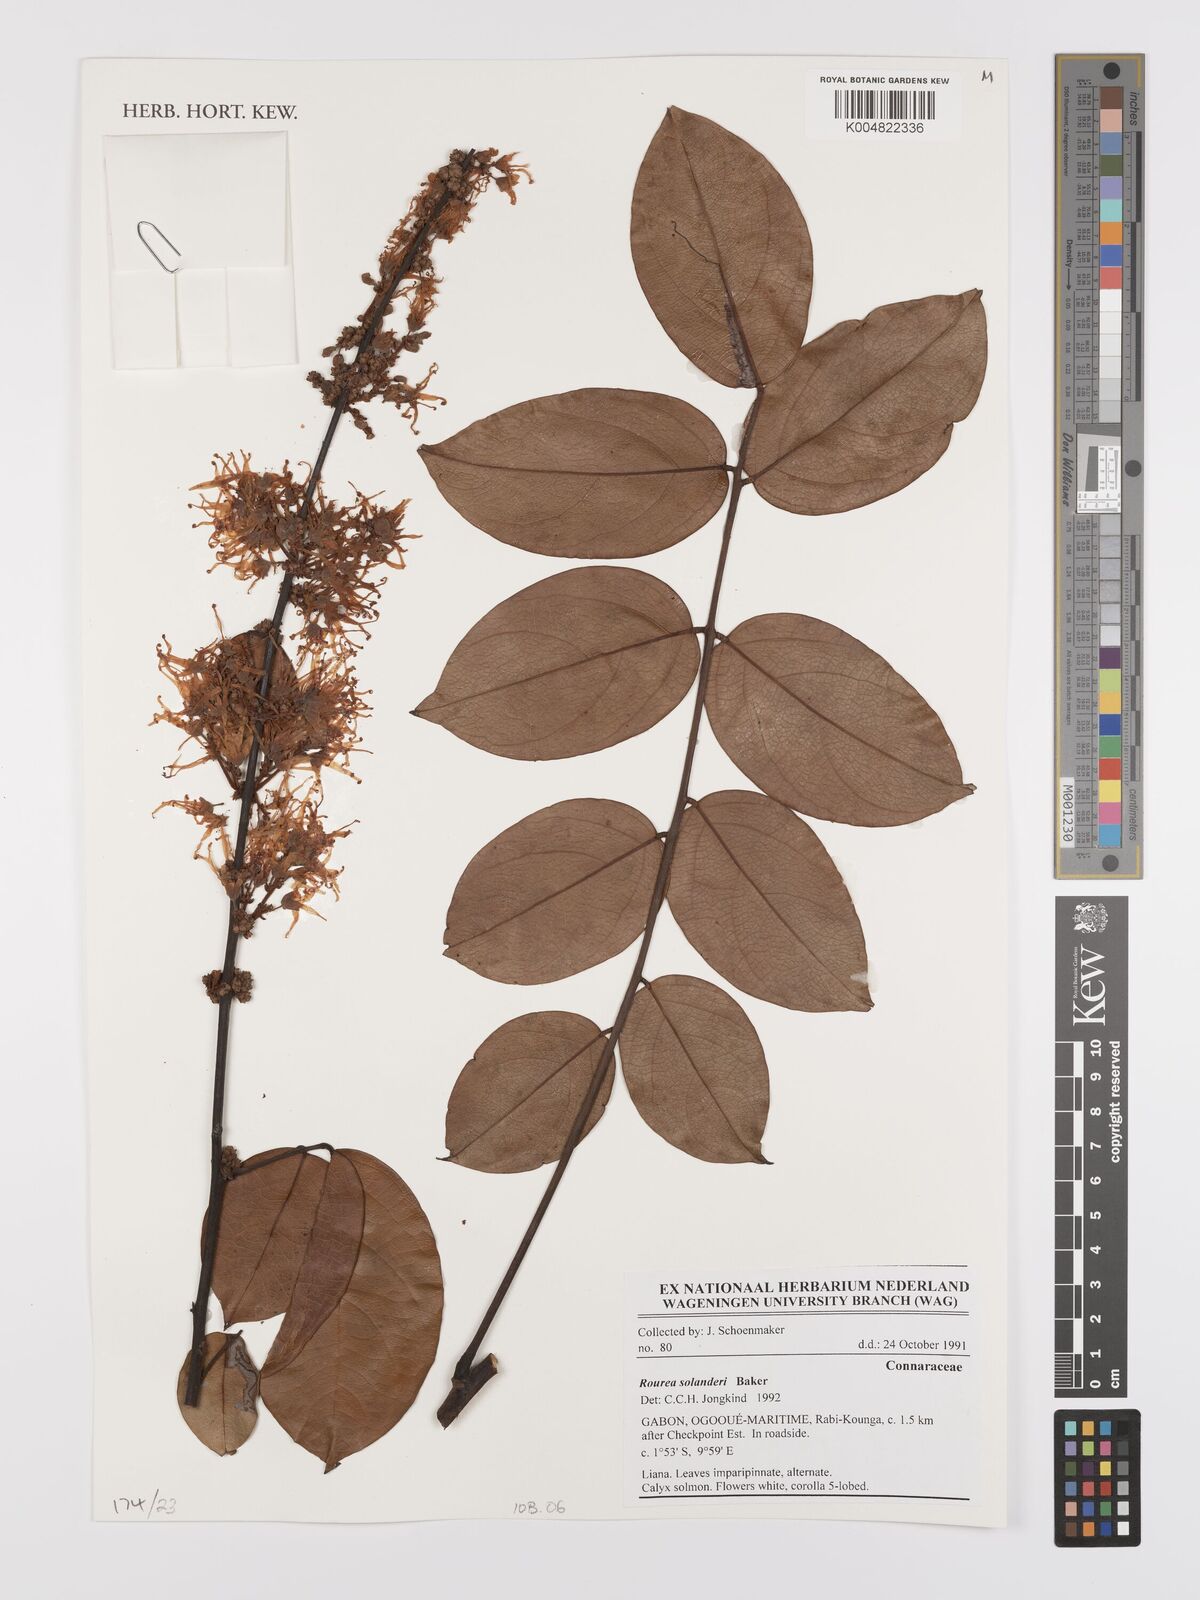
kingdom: Plantae
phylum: Tracheophyta
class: Magnoliopsida
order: Oxalidales
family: Connaraceae
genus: Rourea
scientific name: Rourea solanderi
